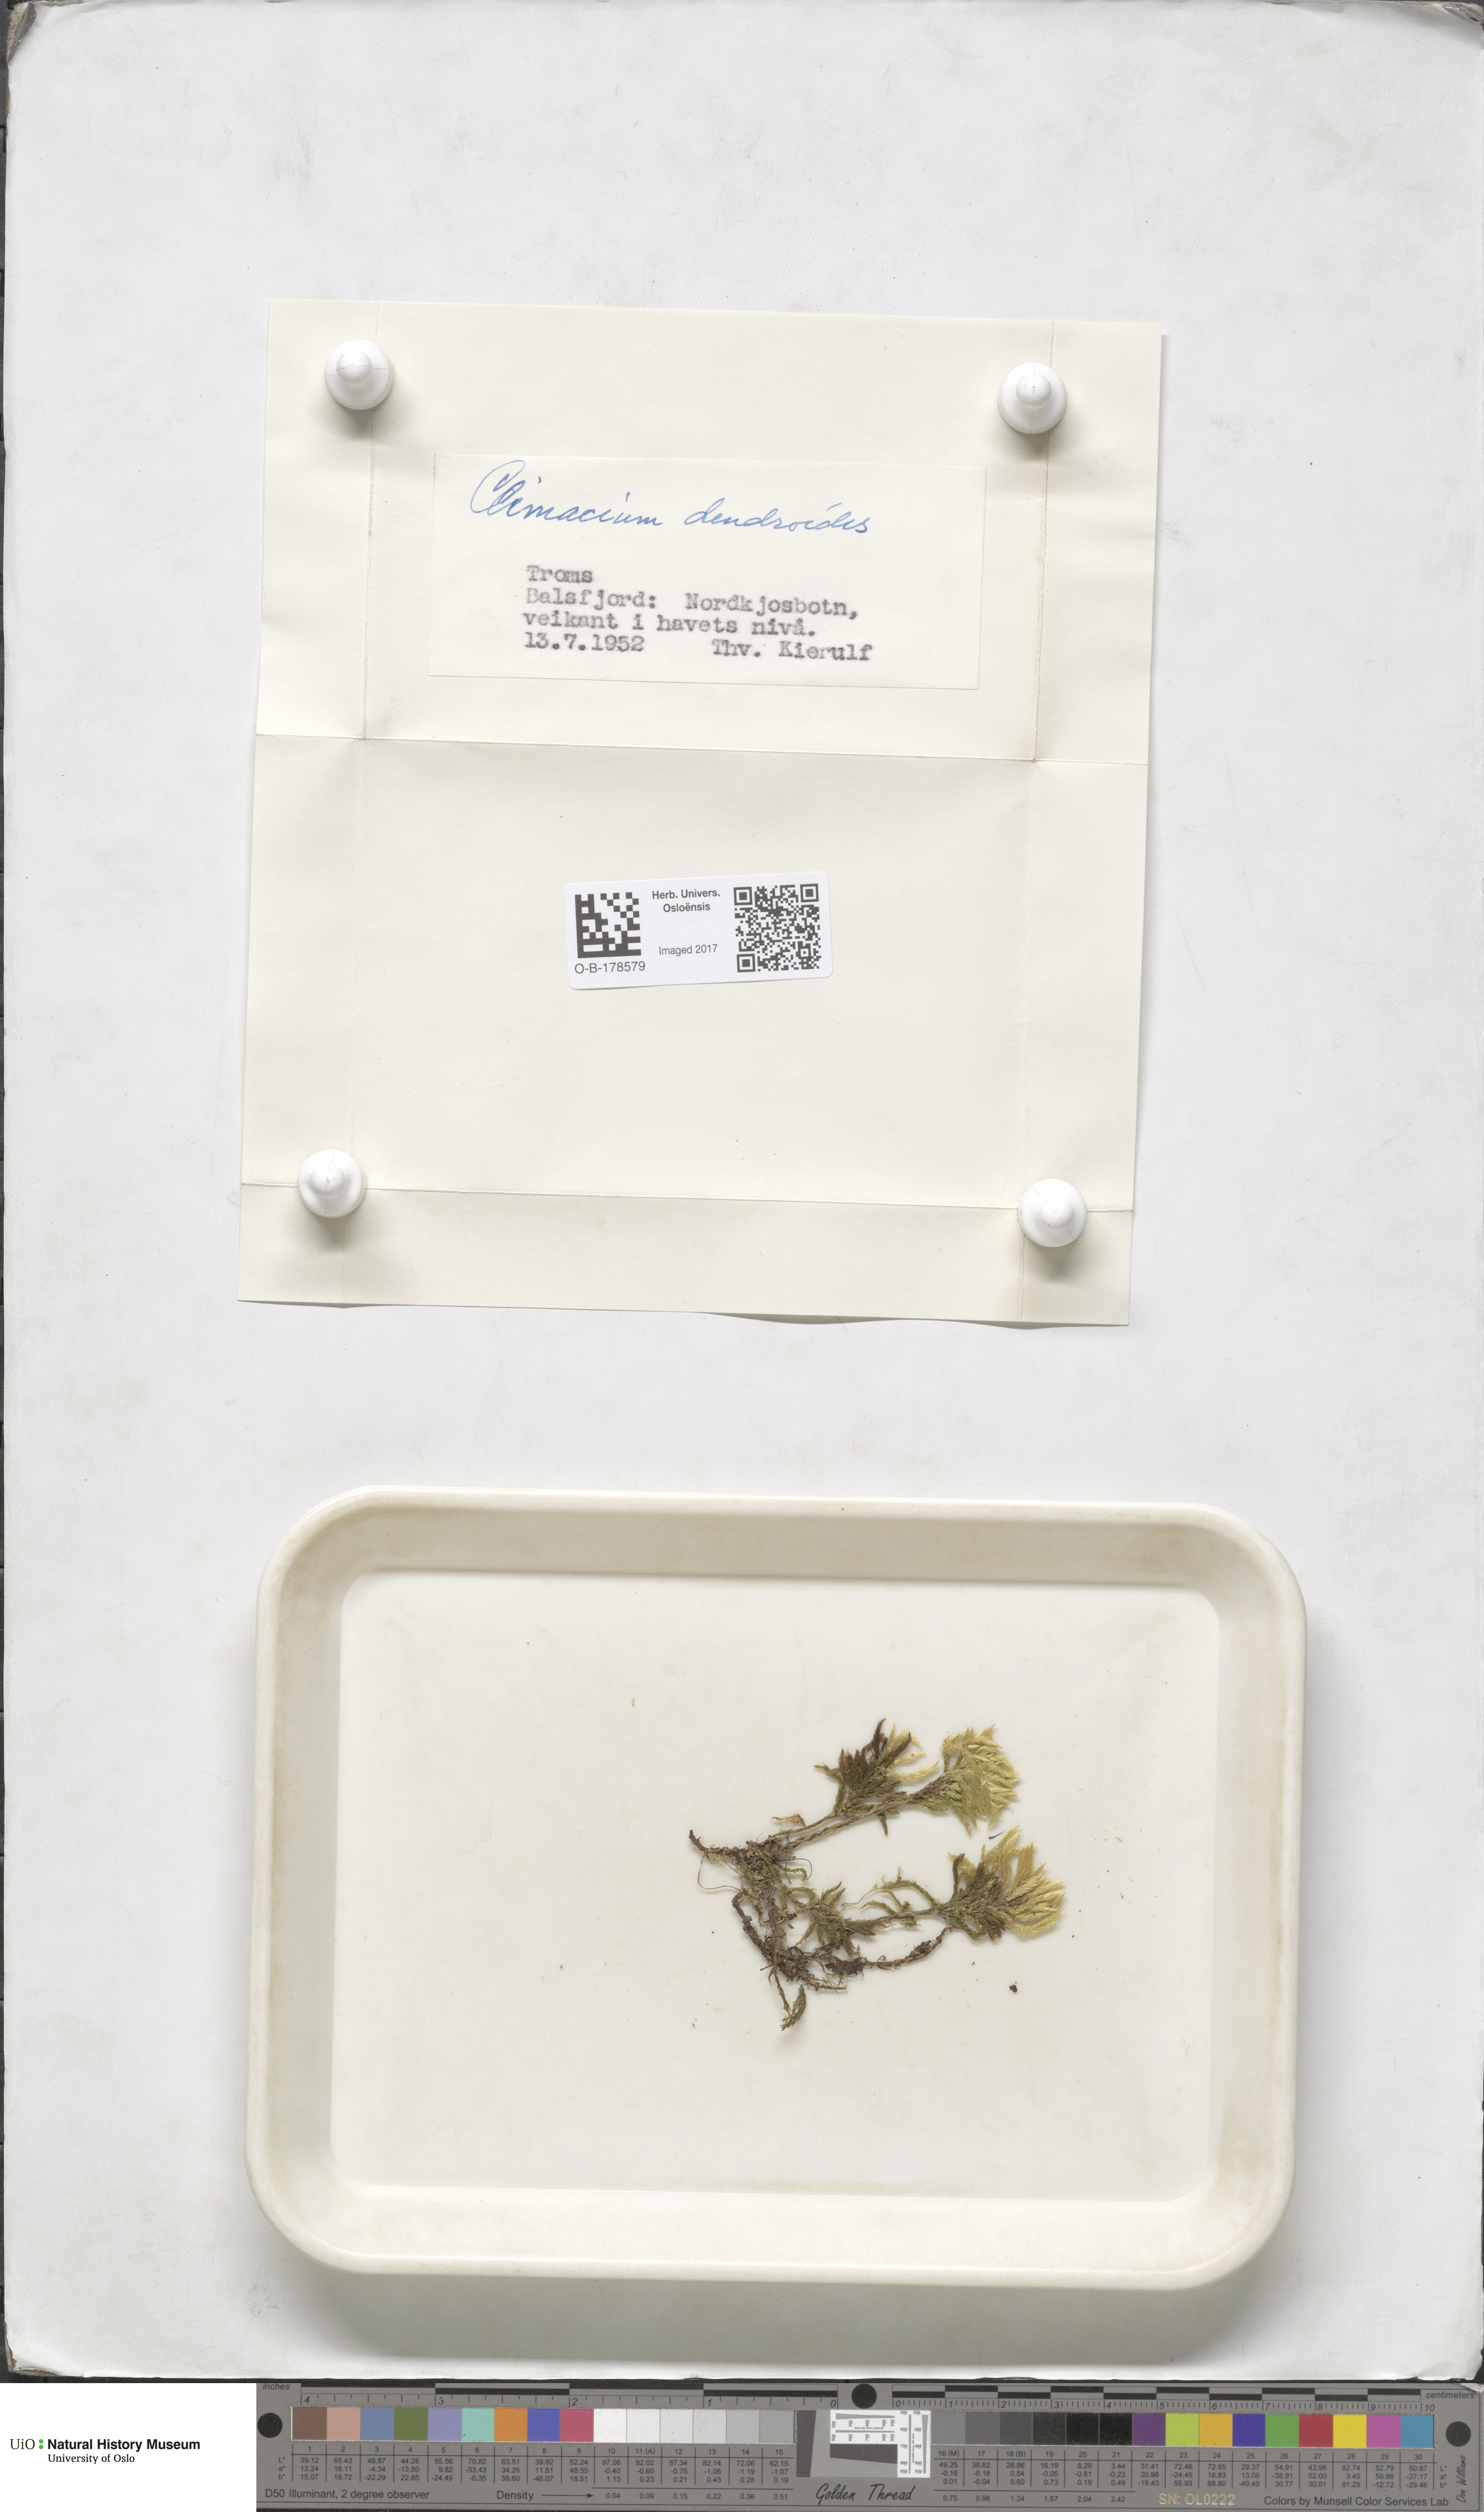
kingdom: Plantae
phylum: Bryophyta
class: Bryopsida
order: Hypnales
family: Climaciaceae
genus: Climacium
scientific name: Climacium dendroides
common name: Northern tree moss
